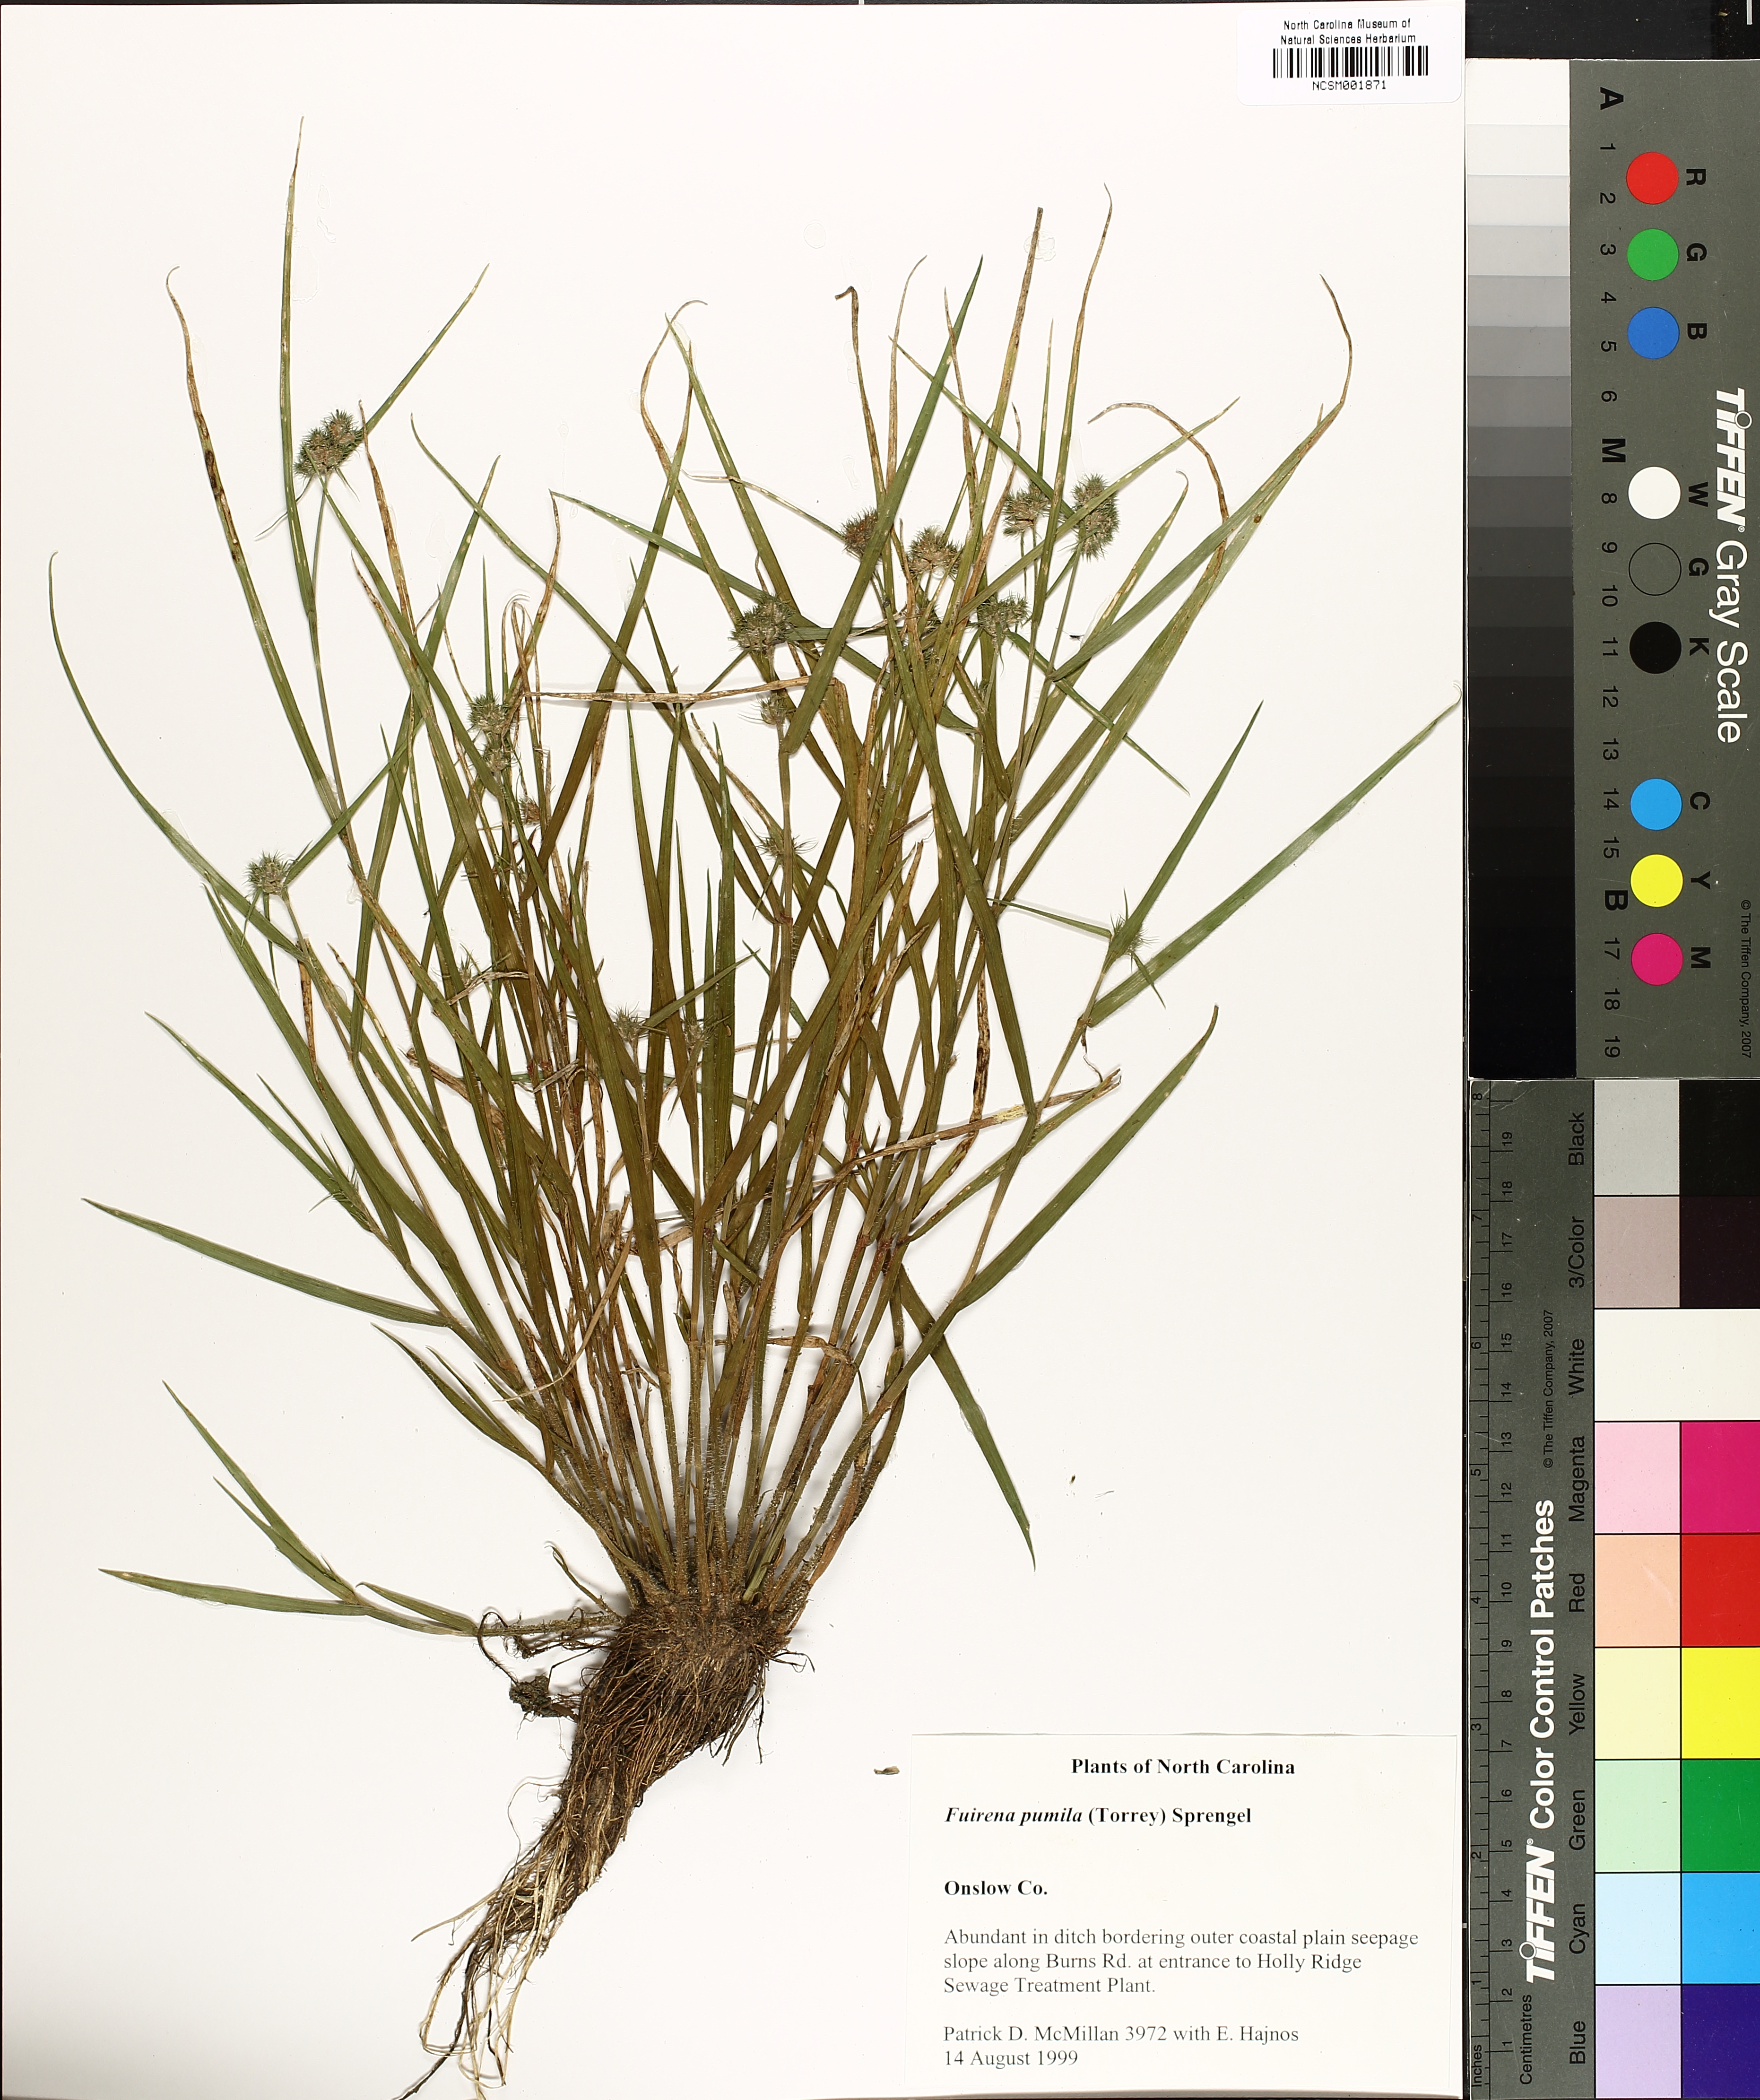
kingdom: Plantae
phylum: Tracheophyta
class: Liliopsida
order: Poales
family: Cyperaceae
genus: Fuirena
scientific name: Fuirena pumila
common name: Dwarf umbrella sedge
